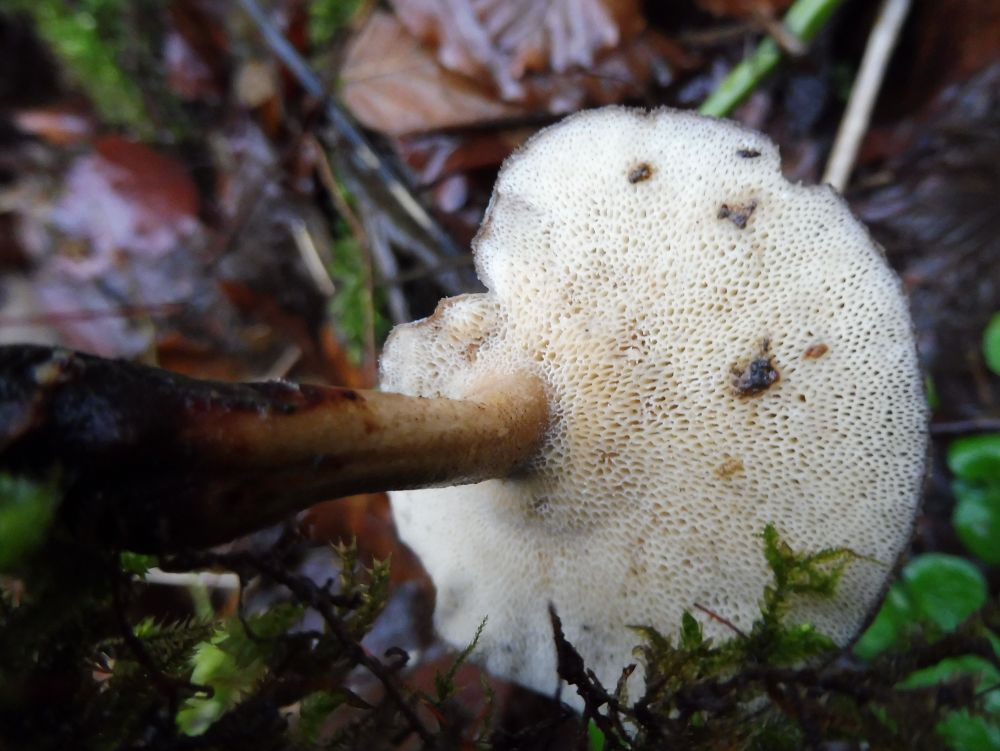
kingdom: Fungi
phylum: Basidiomycota
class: Agaricomycetes
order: Polyporales
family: Polyporaceae
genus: Lentinus
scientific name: Lentinus brumalis
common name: vinter-stilkporesvamp
